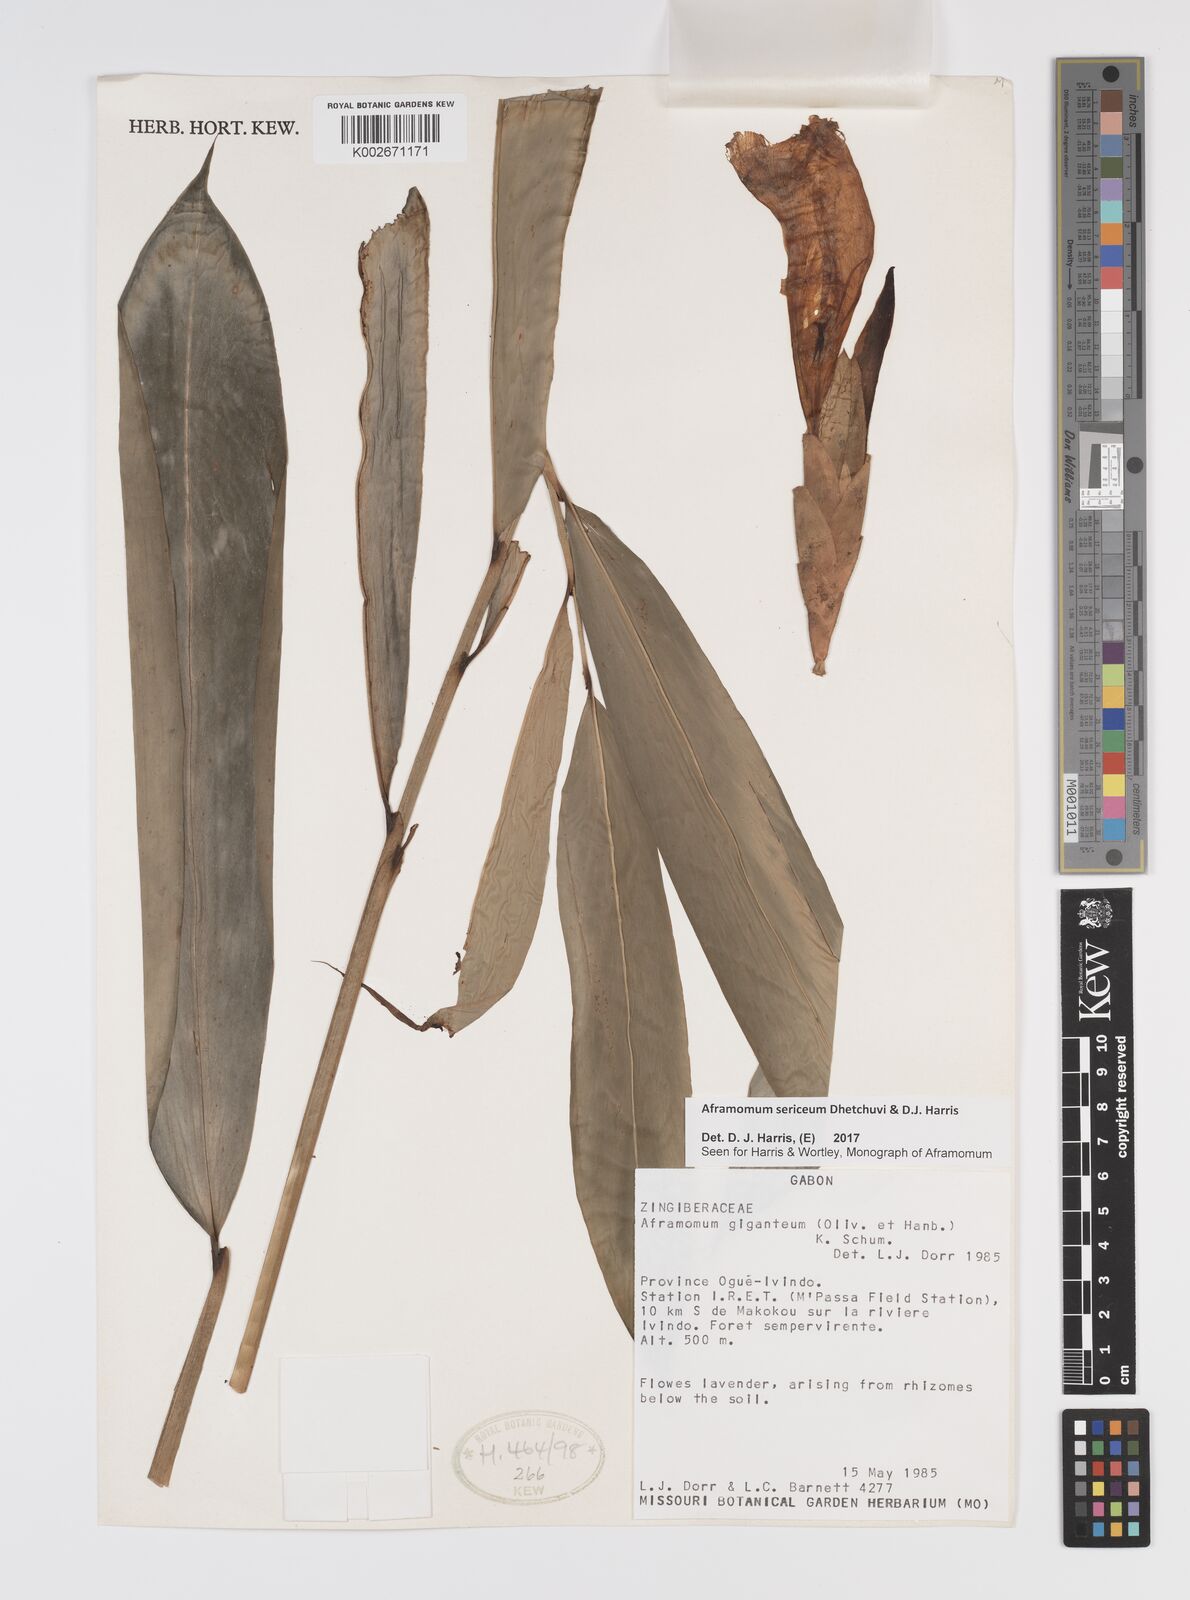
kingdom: Plantae
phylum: Tracheophyta
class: Liliopsida
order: Zingiberales
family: Zingiberaceae
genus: Aframomum
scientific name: Aframomum sericeum
